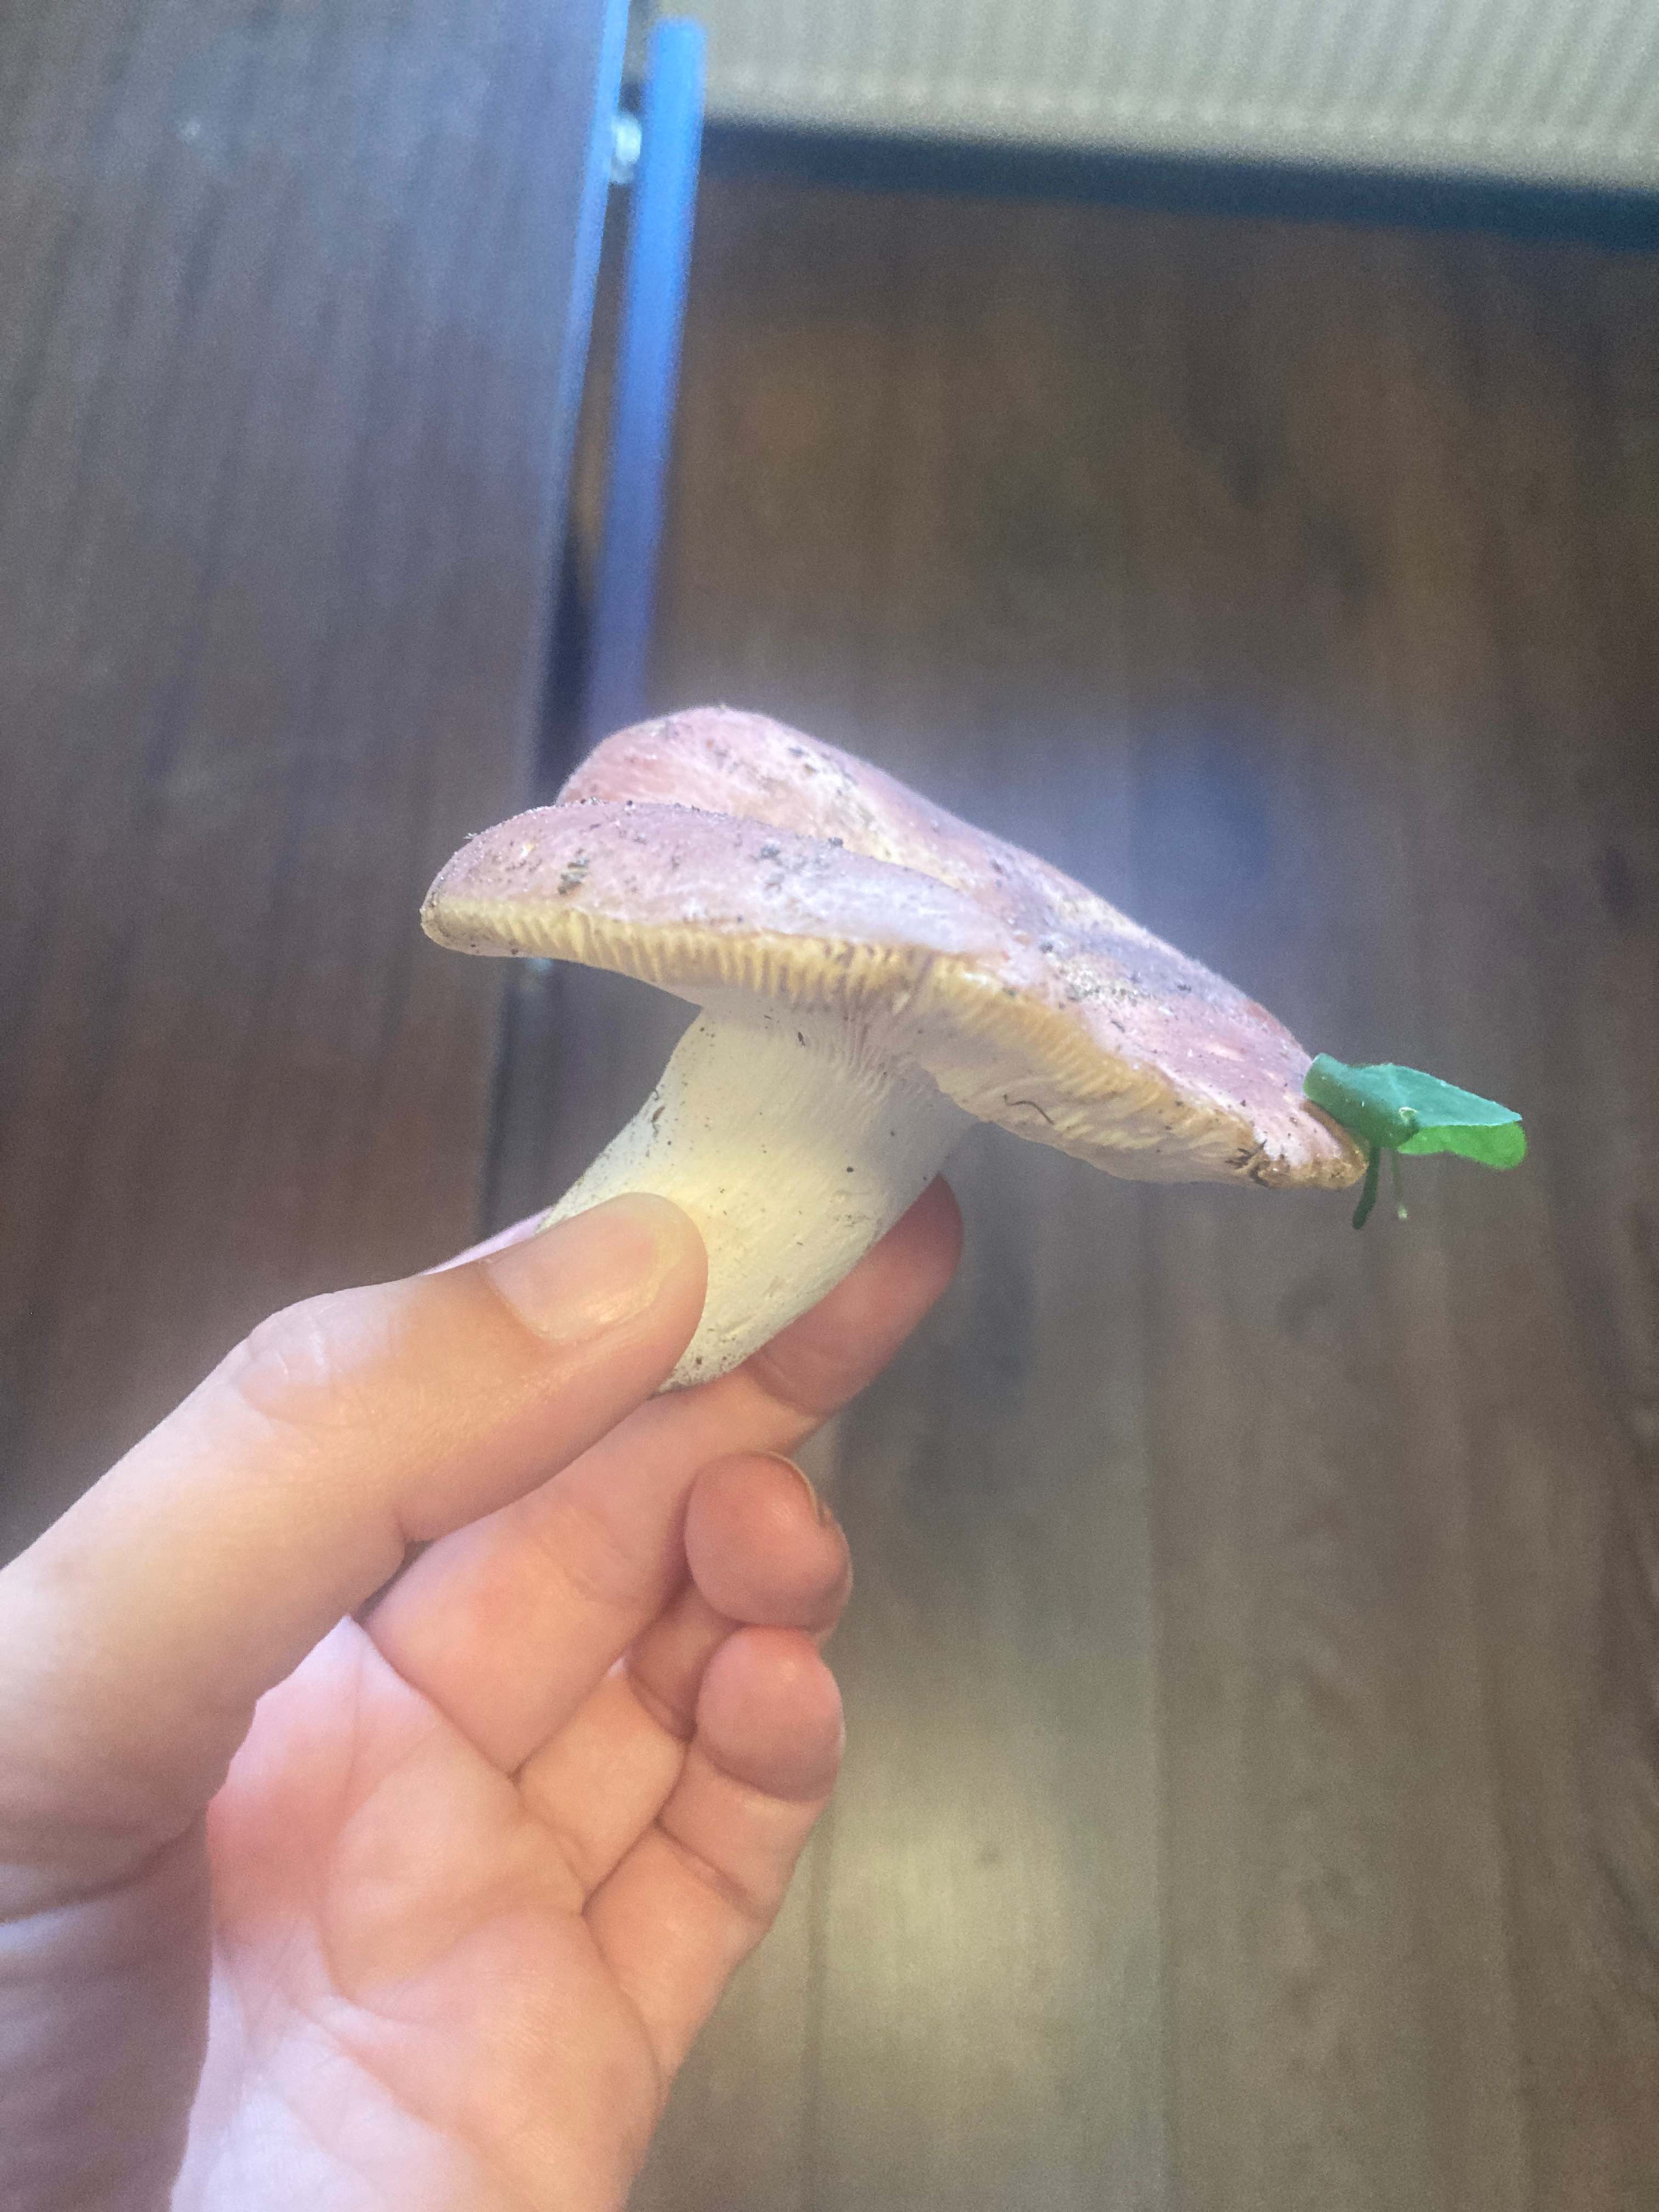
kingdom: Fungi
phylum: Basidiomycota
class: Agaricomycetes
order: Russulales
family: Russulaceae
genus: Russula
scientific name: Russula
